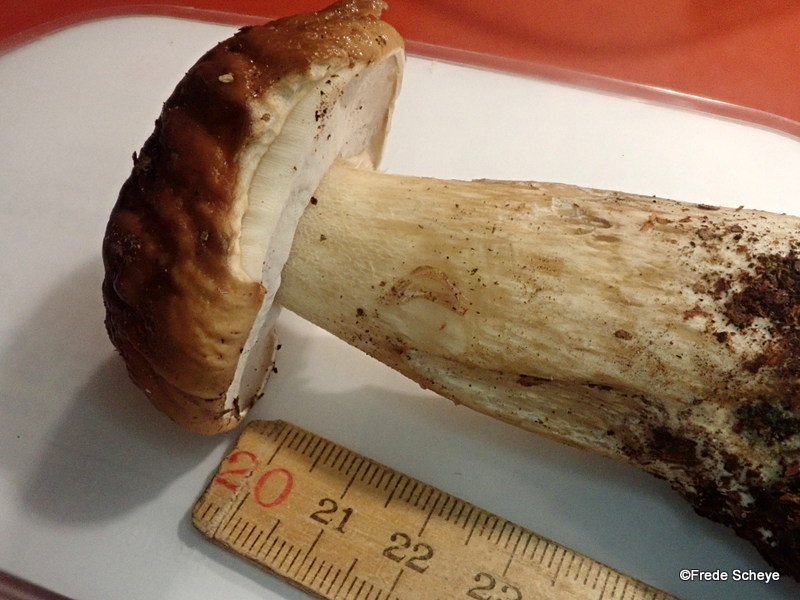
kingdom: Fungi
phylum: Basidiomycota
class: Agaricomycetes
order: Boletales
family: Boletaceae
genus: Boletus
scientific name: Boletus edulis
